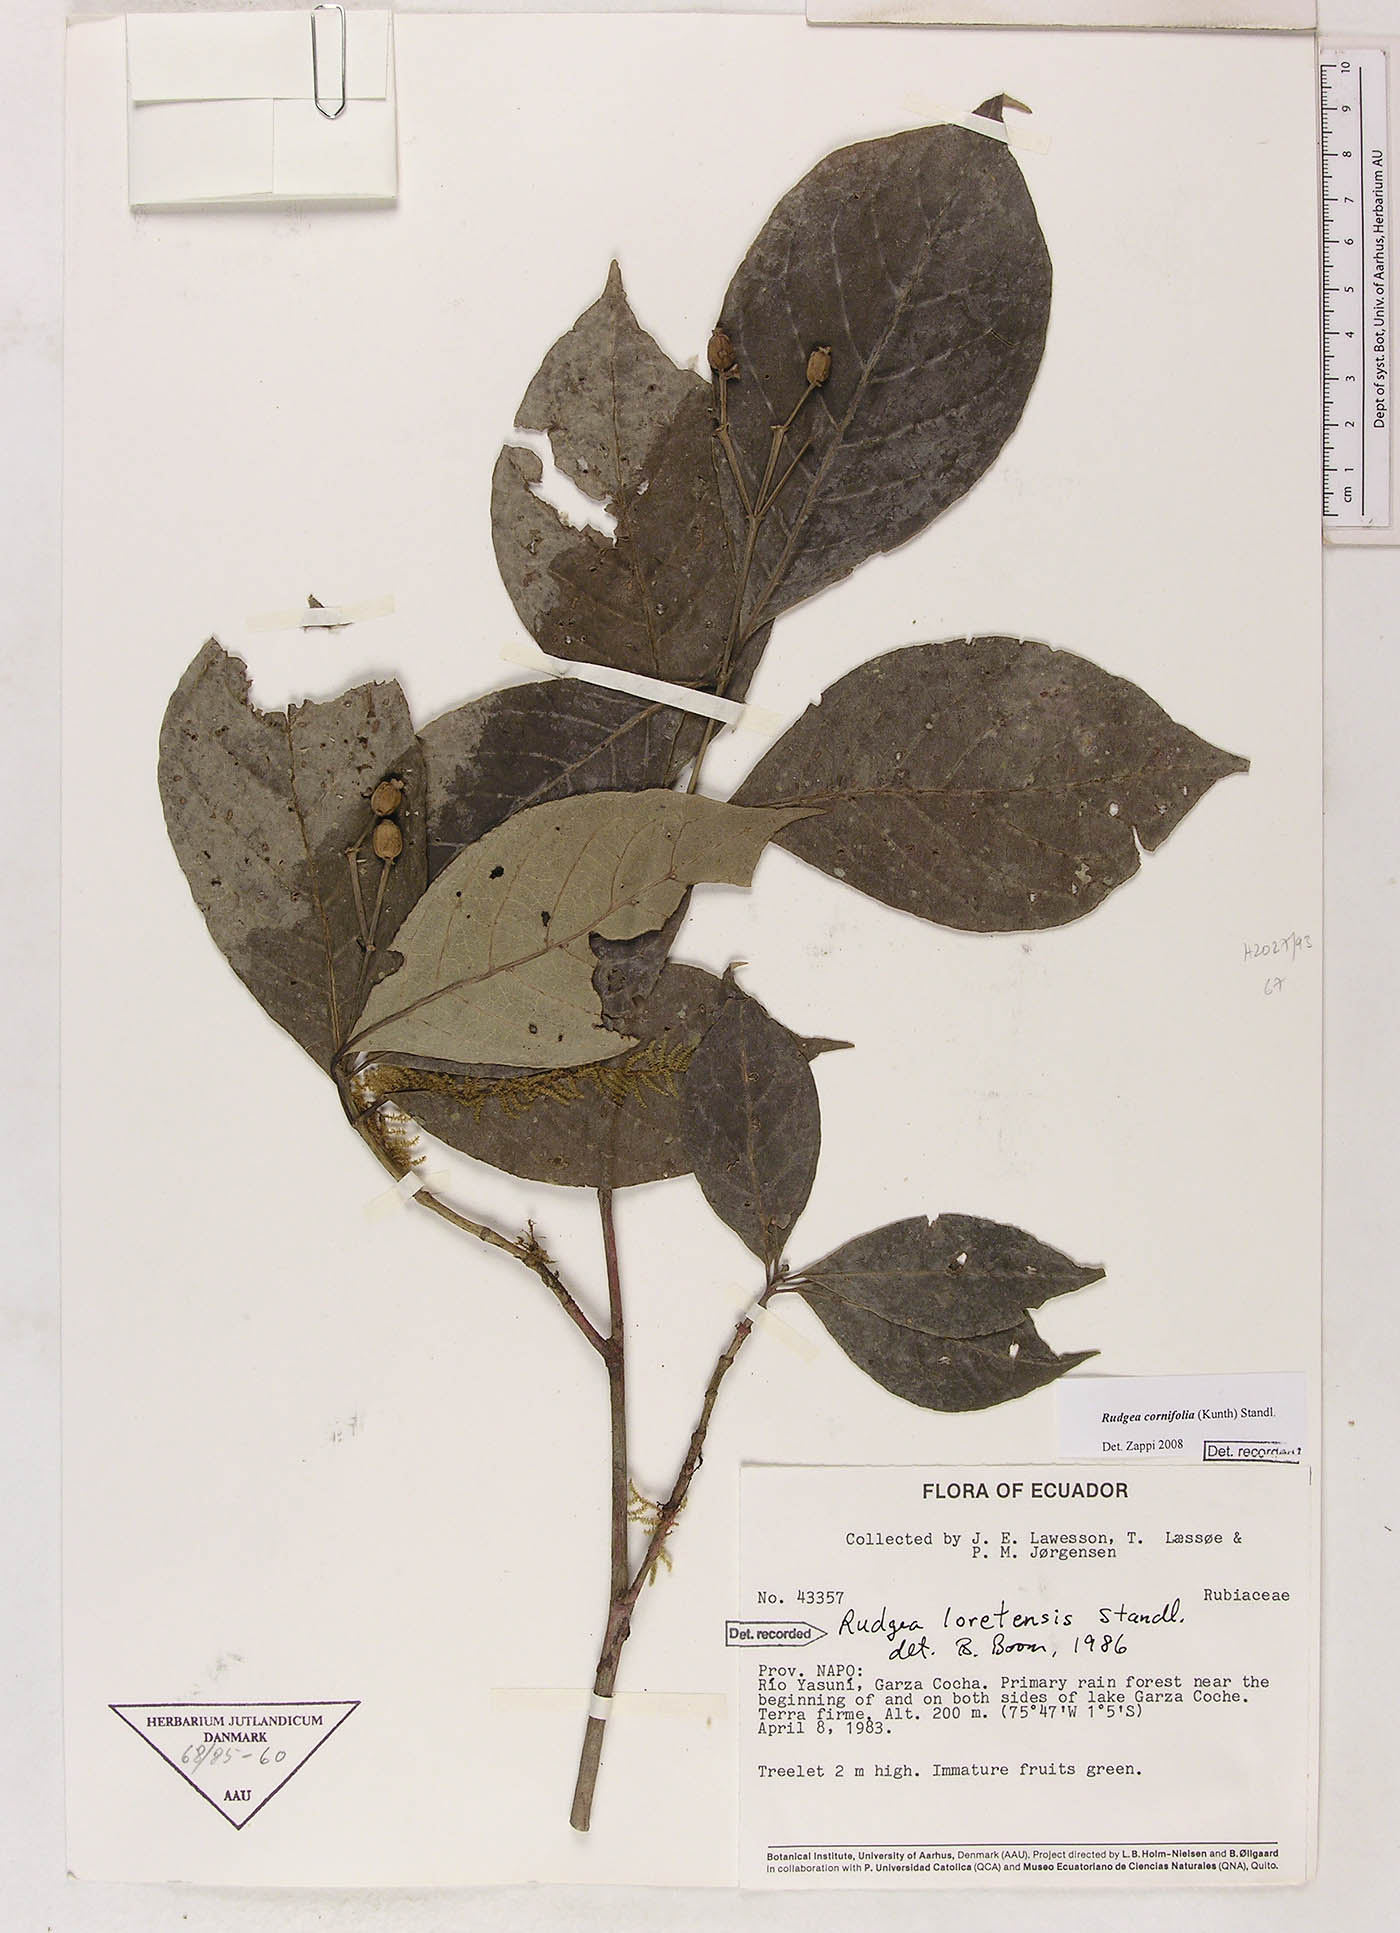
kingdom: Plantae
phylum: Tracheophyta
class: Magnoliopsida
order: Gentianales
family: Rubiaceae
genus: Rudgea
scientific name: Rudgea cornifolia
